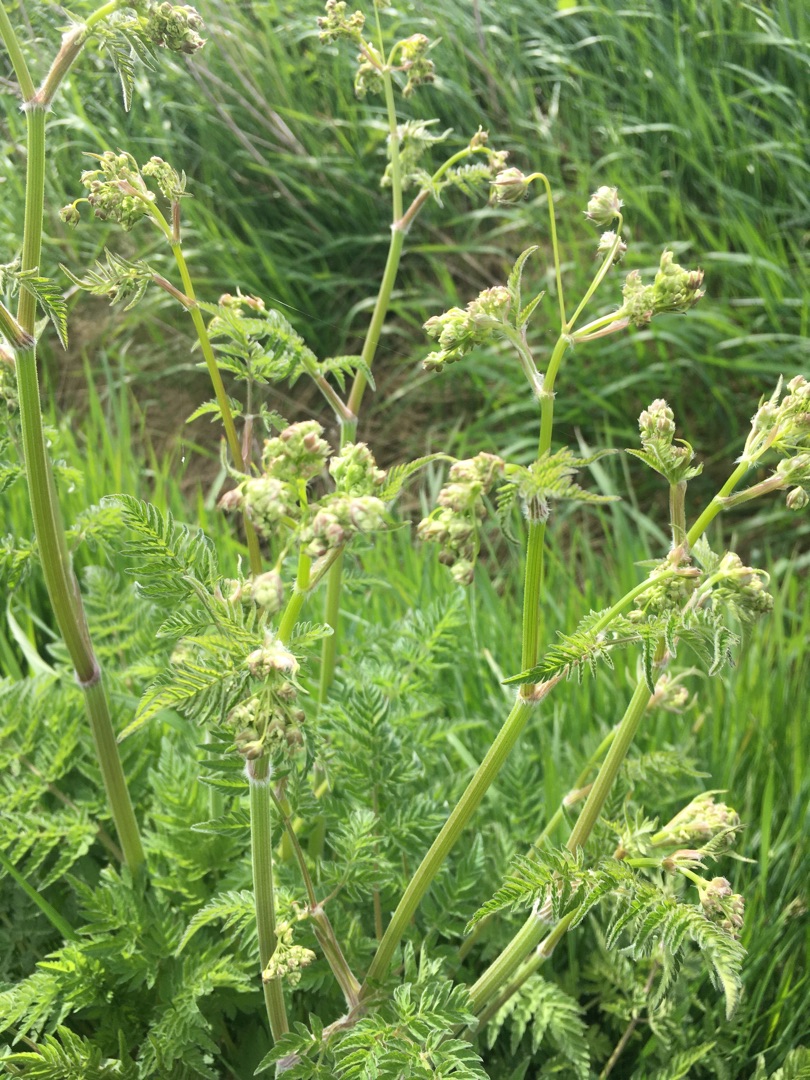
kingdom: Plantae
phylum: Tracheophyta
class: Magnoliopsida
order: Apiales
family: Apiaceae
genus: Anthriscus
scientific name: Anthriscus sylvestris
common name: Vild kørvel
